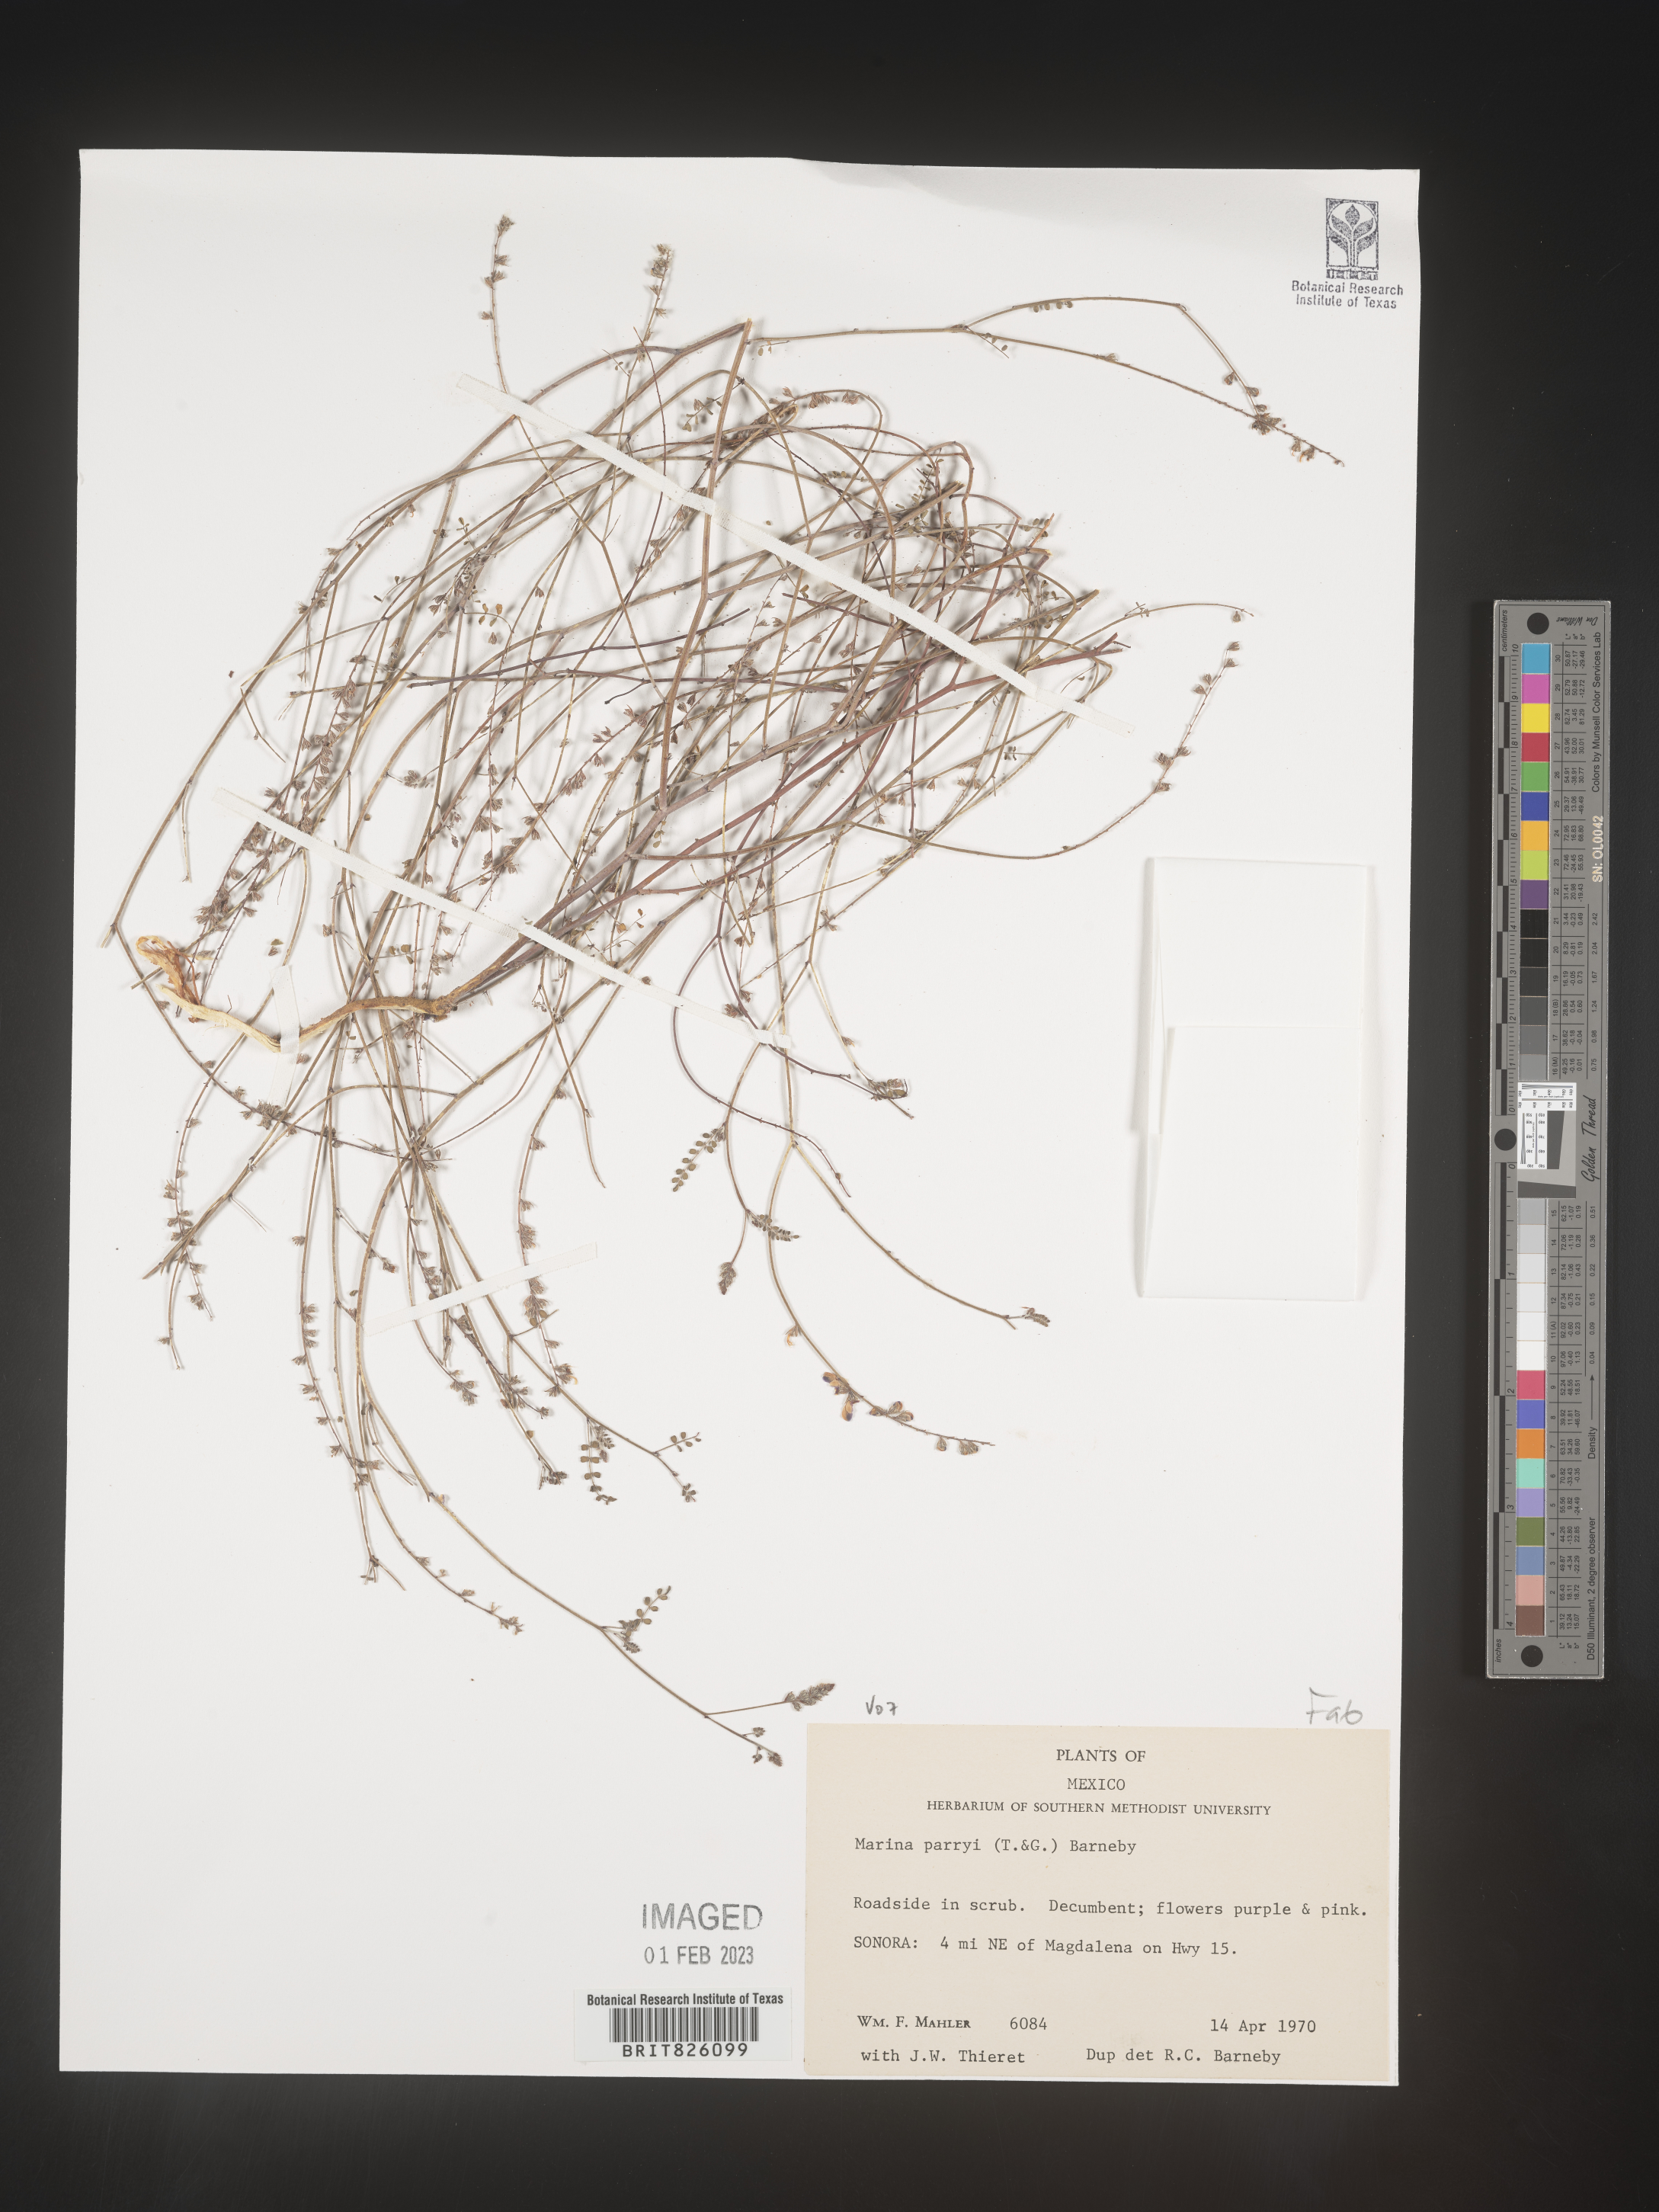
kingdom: Plantae
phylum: Tracheophyta
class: Magnoliopsida
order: Fabales
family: Fabaceae
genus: Marina
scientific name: Marina
